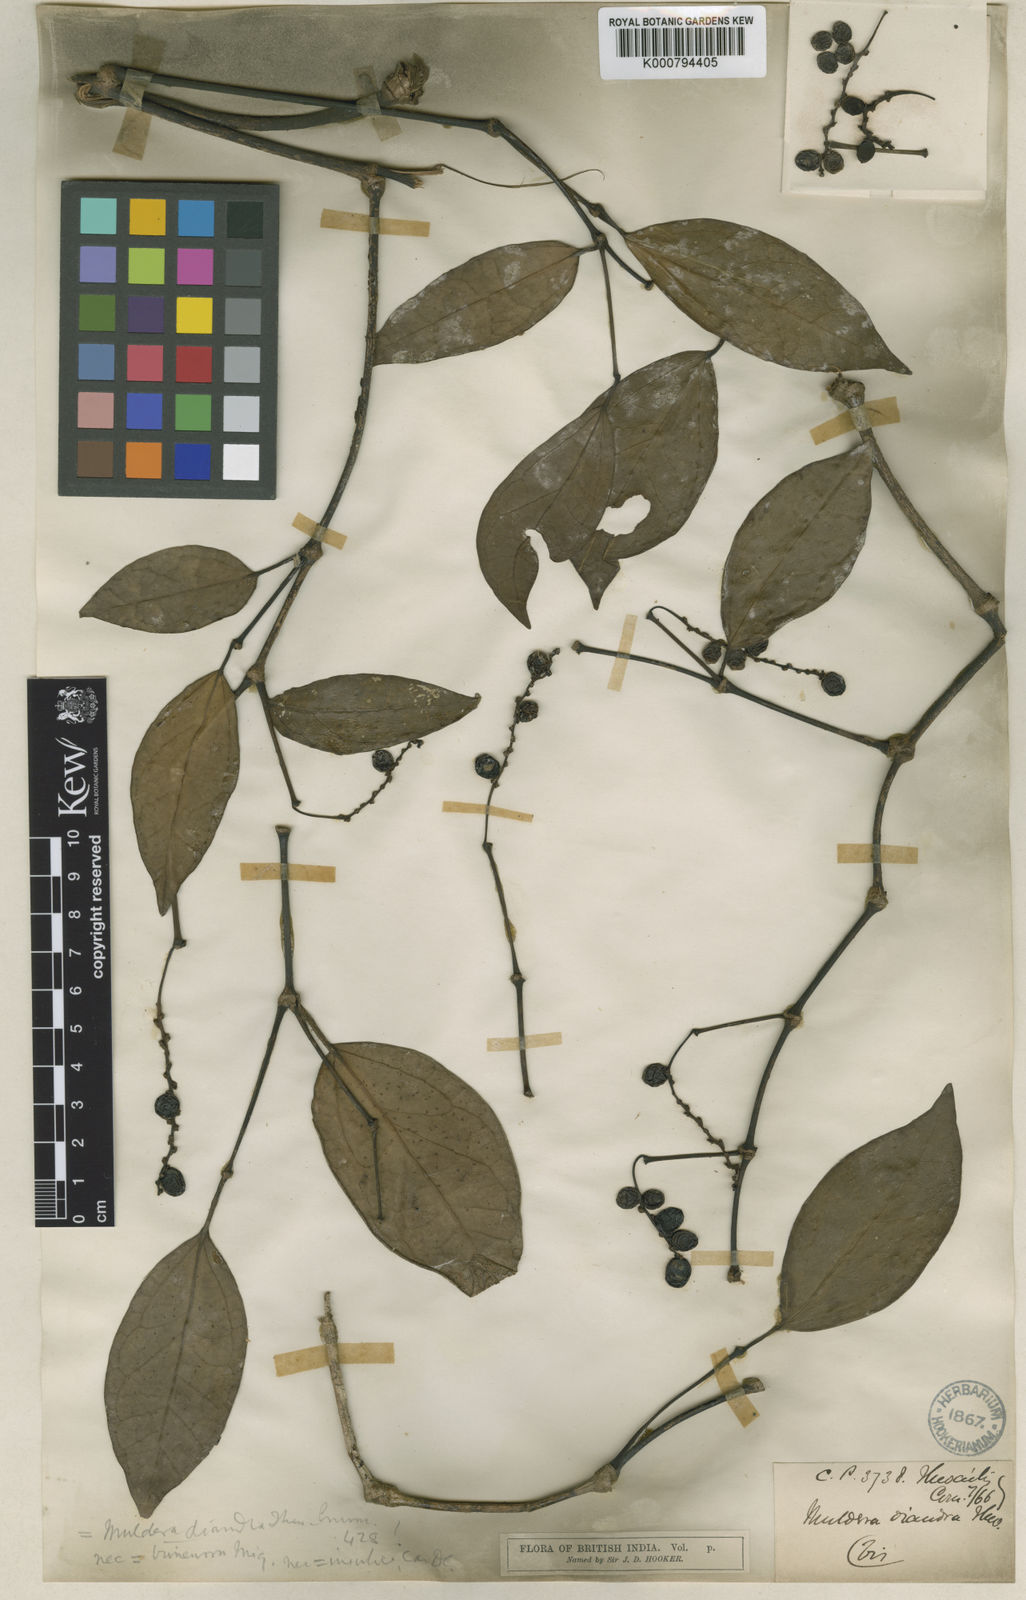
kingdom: Plantae
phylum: Tracheophyta
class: Magnoliopsida
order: Piperales
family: Piperaceae
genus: Piper
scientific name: Piper trineuron
